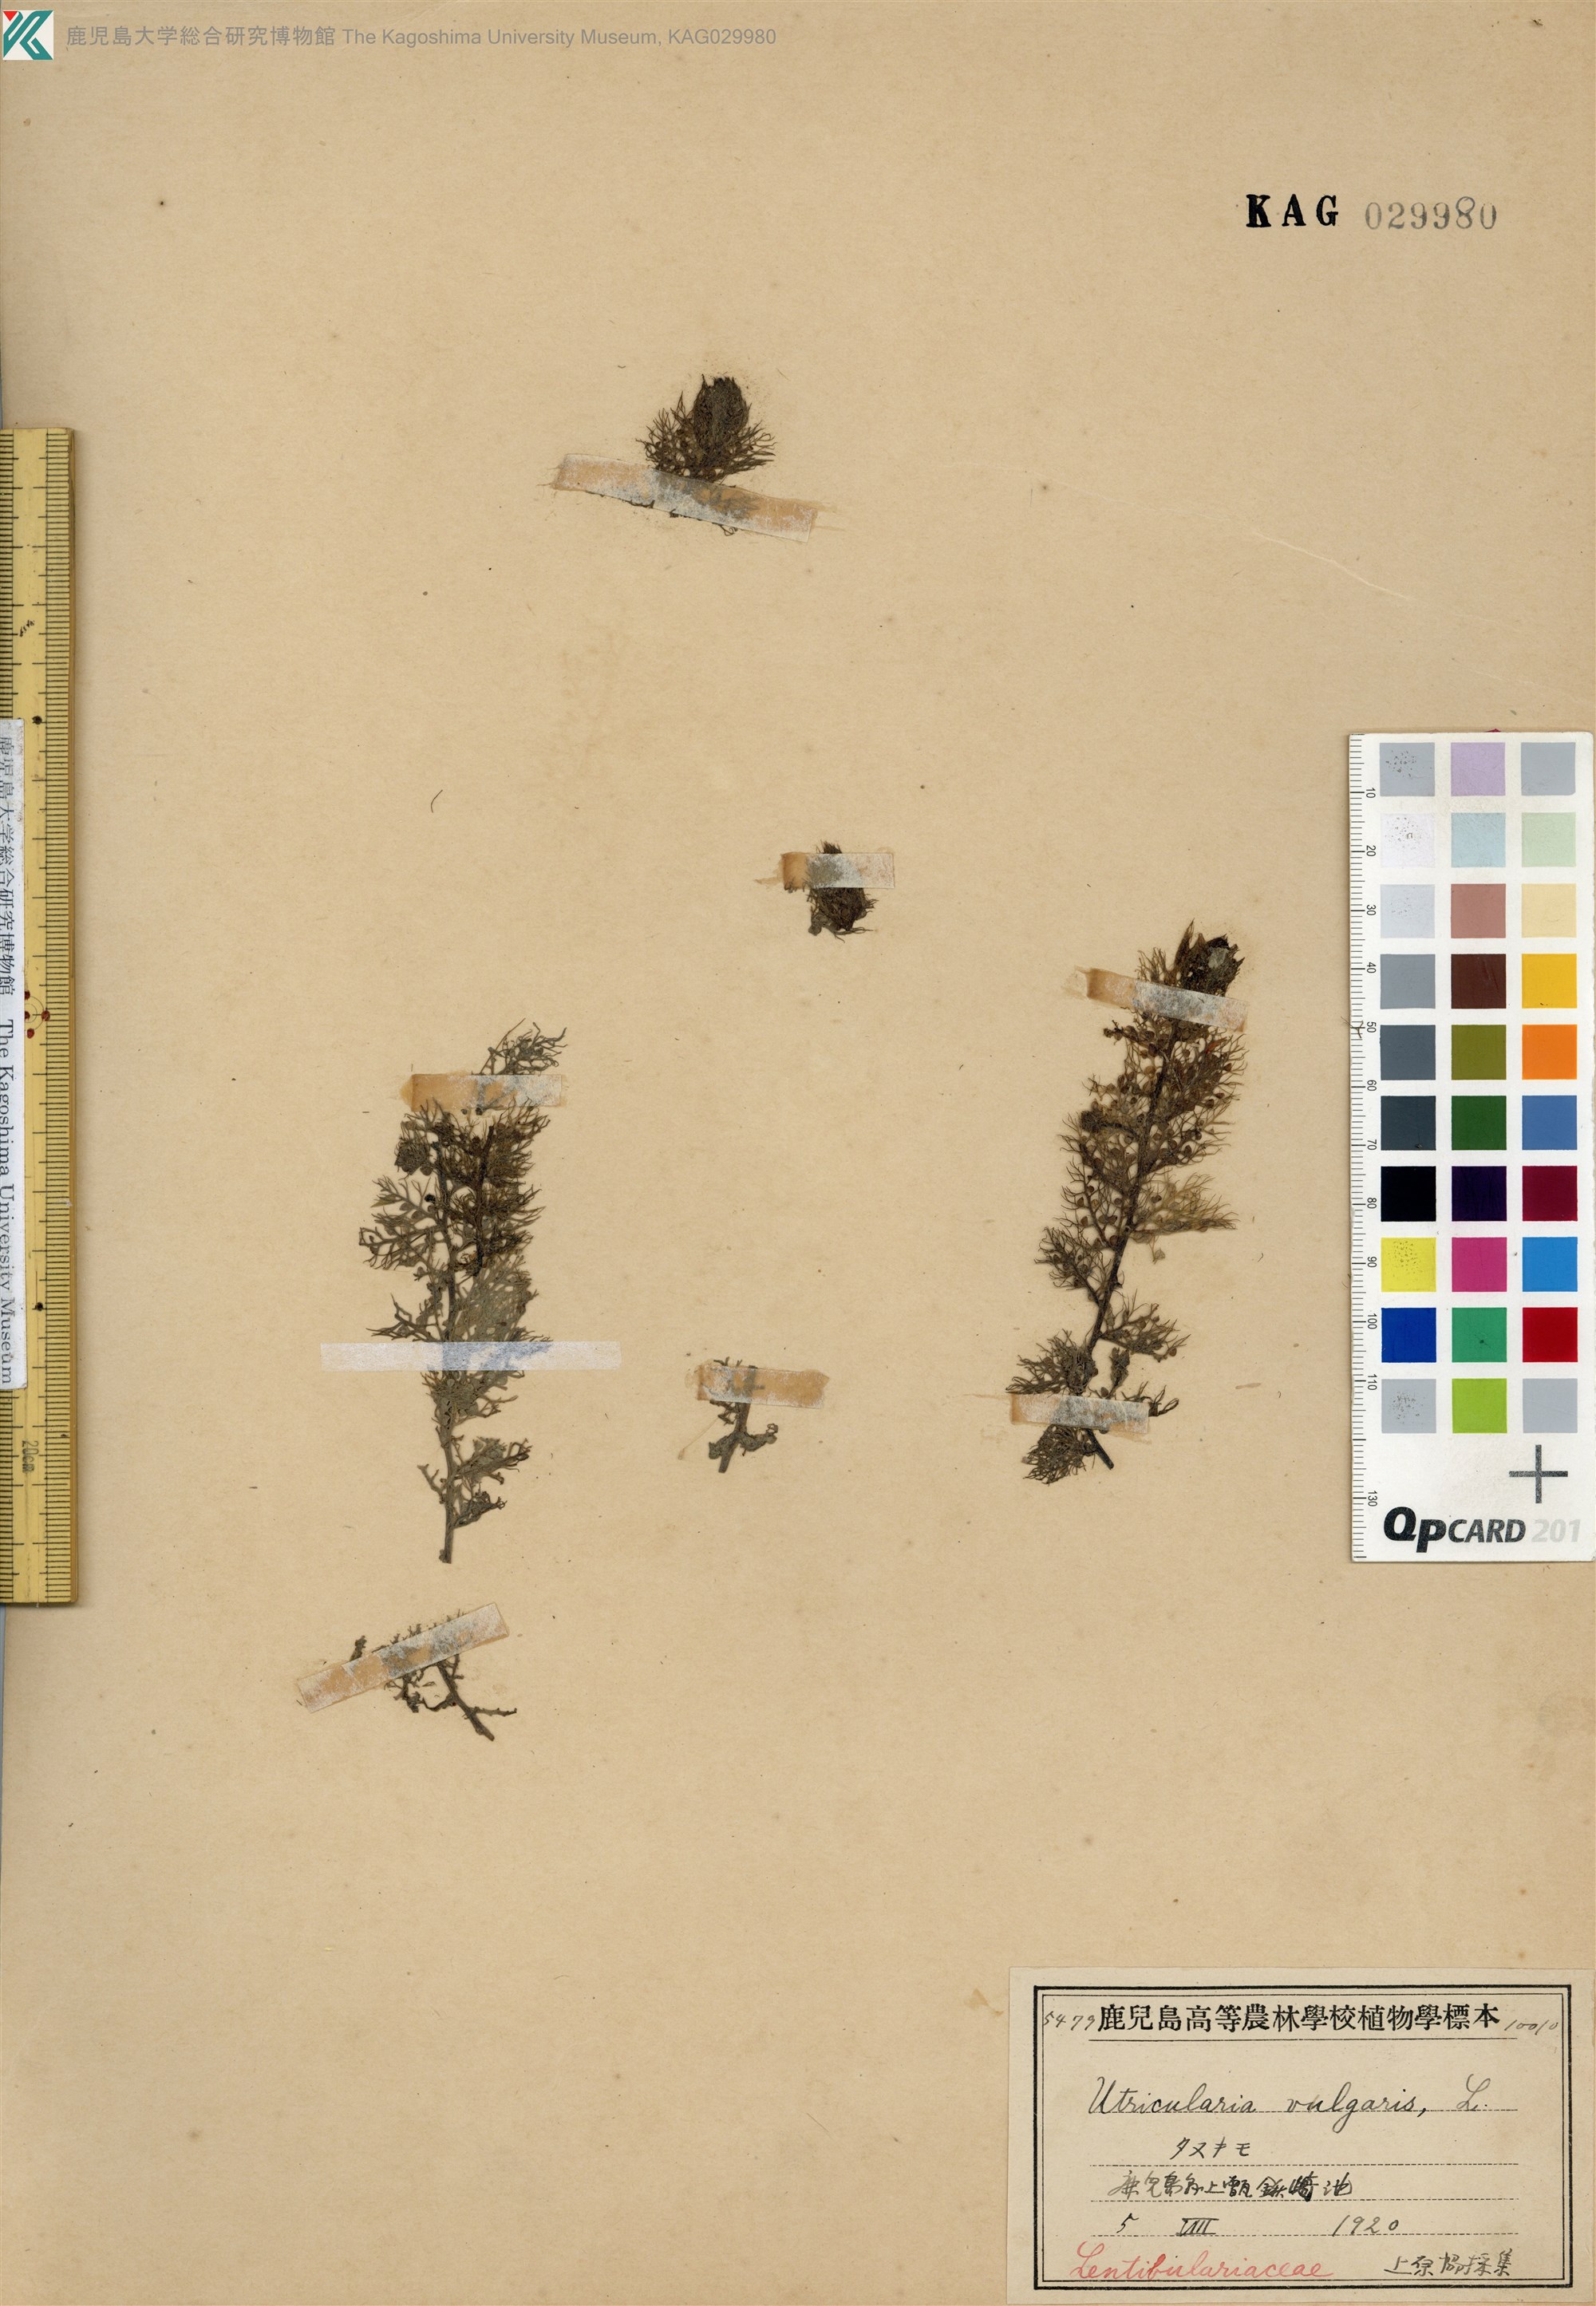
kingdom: Plantae
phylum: Tracheophyta
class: Magnoliopsida
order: Lamiales
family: Lentibulariaceae
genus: Utricularia
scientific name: Utricularia japonica
